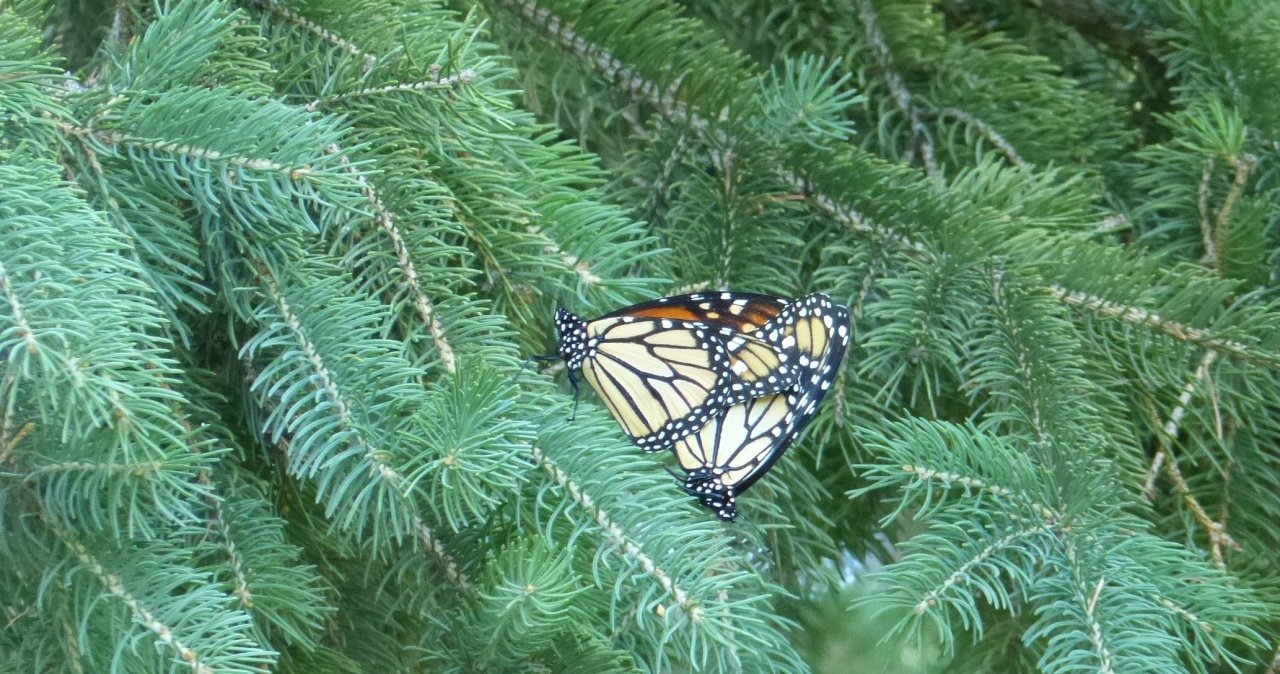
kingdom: Animalia
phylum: Arthropoda
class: Insecta
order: Lepidoptera
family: Nymphalidae
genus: Danaus
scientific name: Danaus plexippus
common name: Monarch
